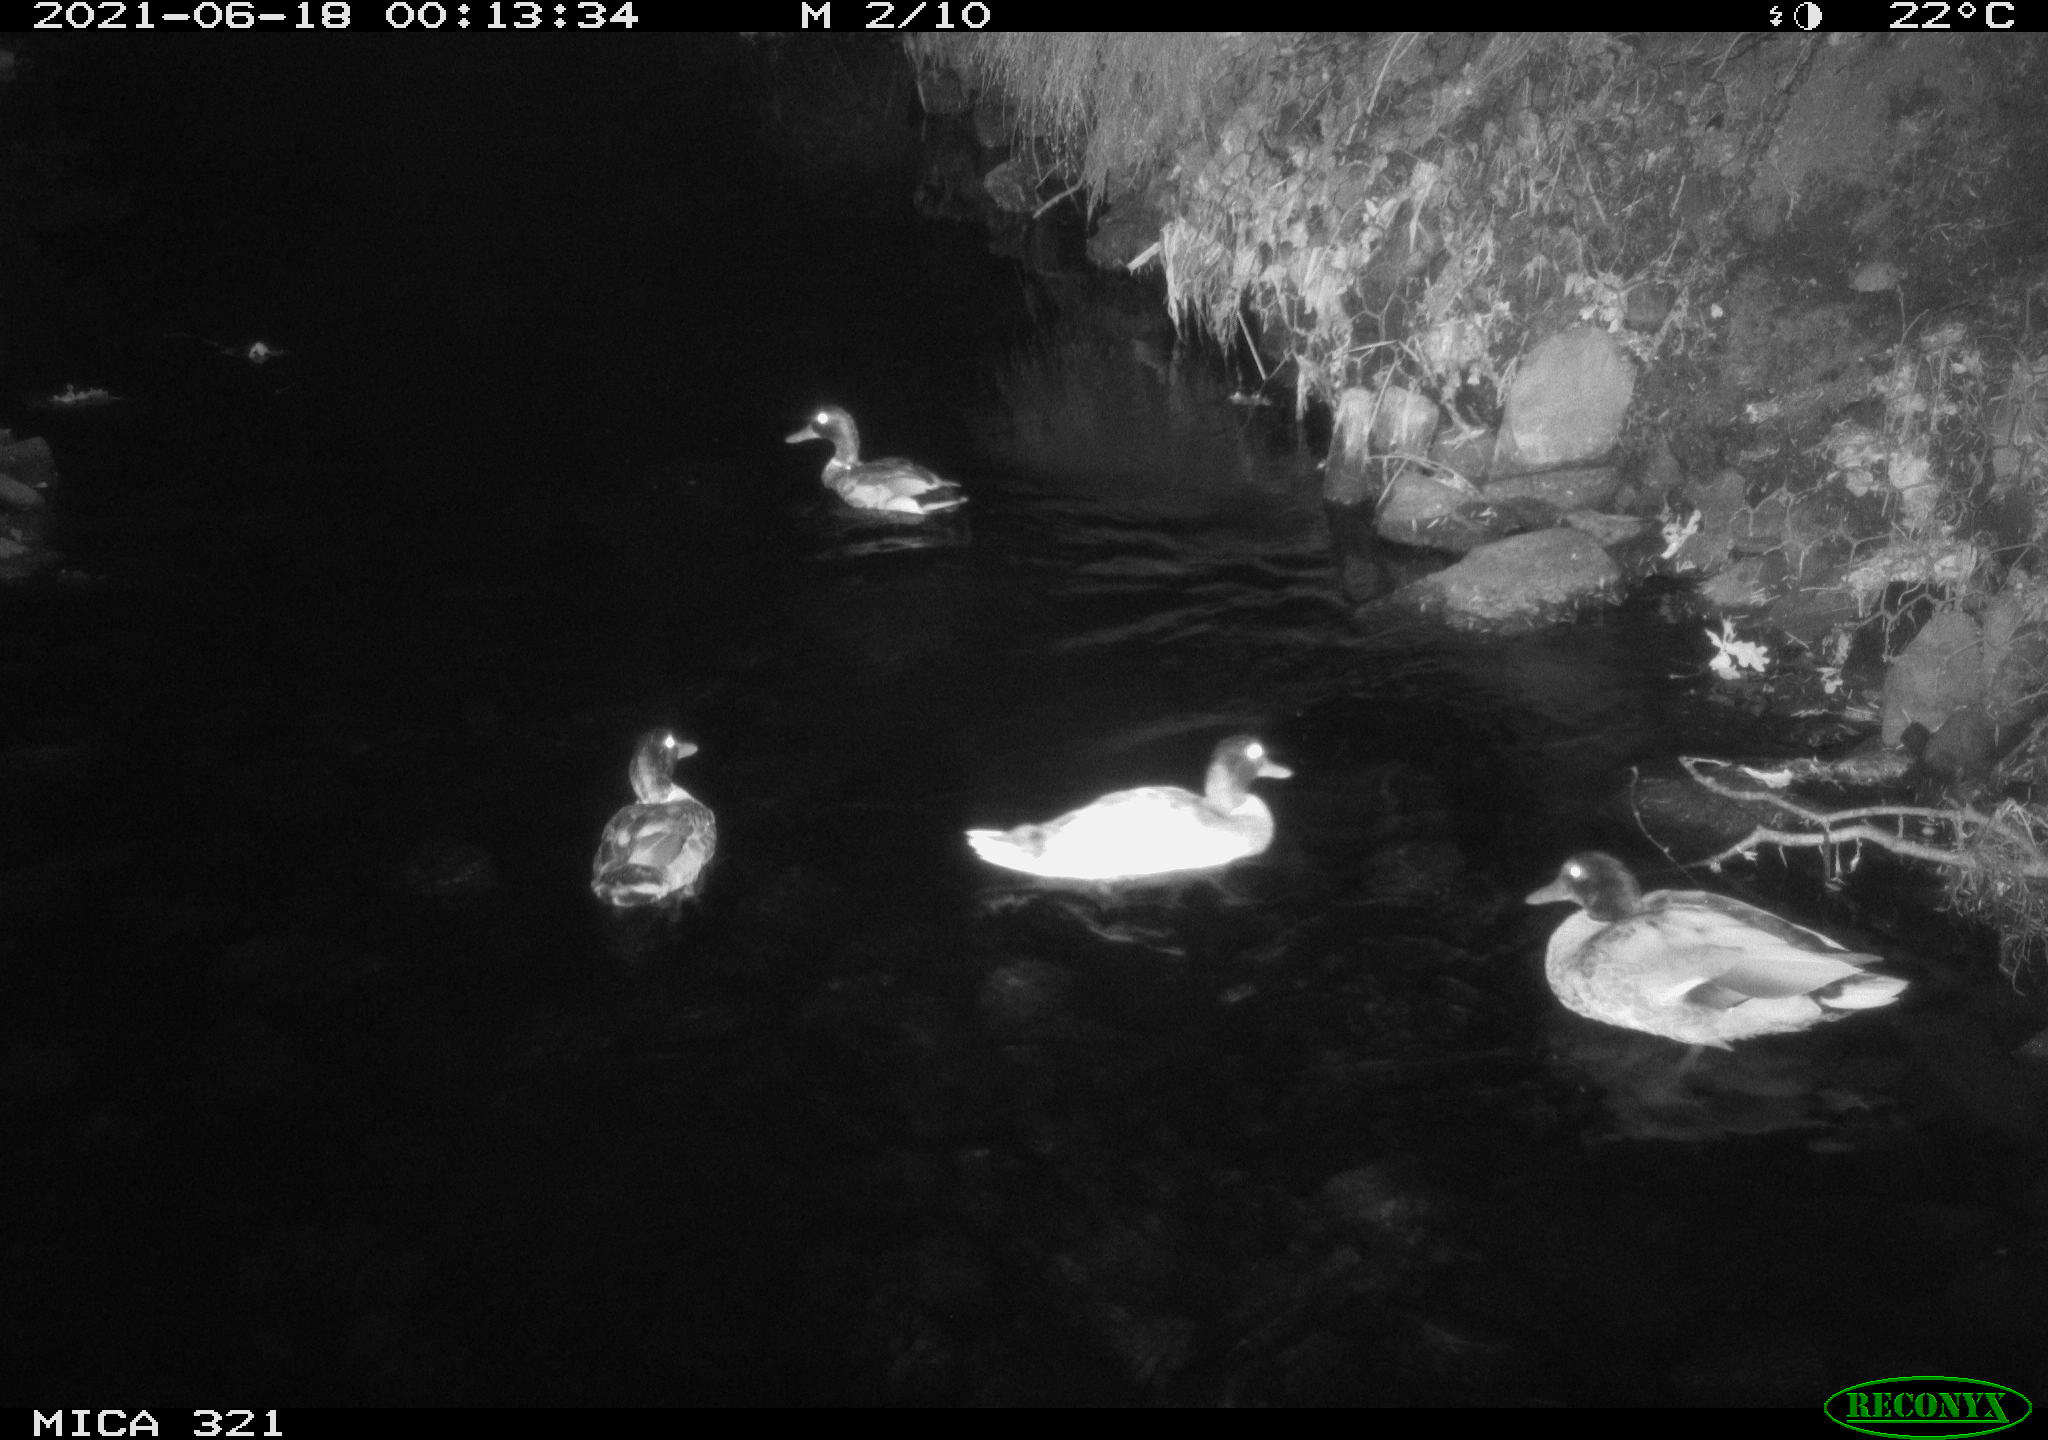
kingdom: Animalia
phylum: Chordata
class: Aves
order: Anseriformes
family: Anatidae
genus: Anas
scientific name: Anas platyrhynchos
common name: Mallard
